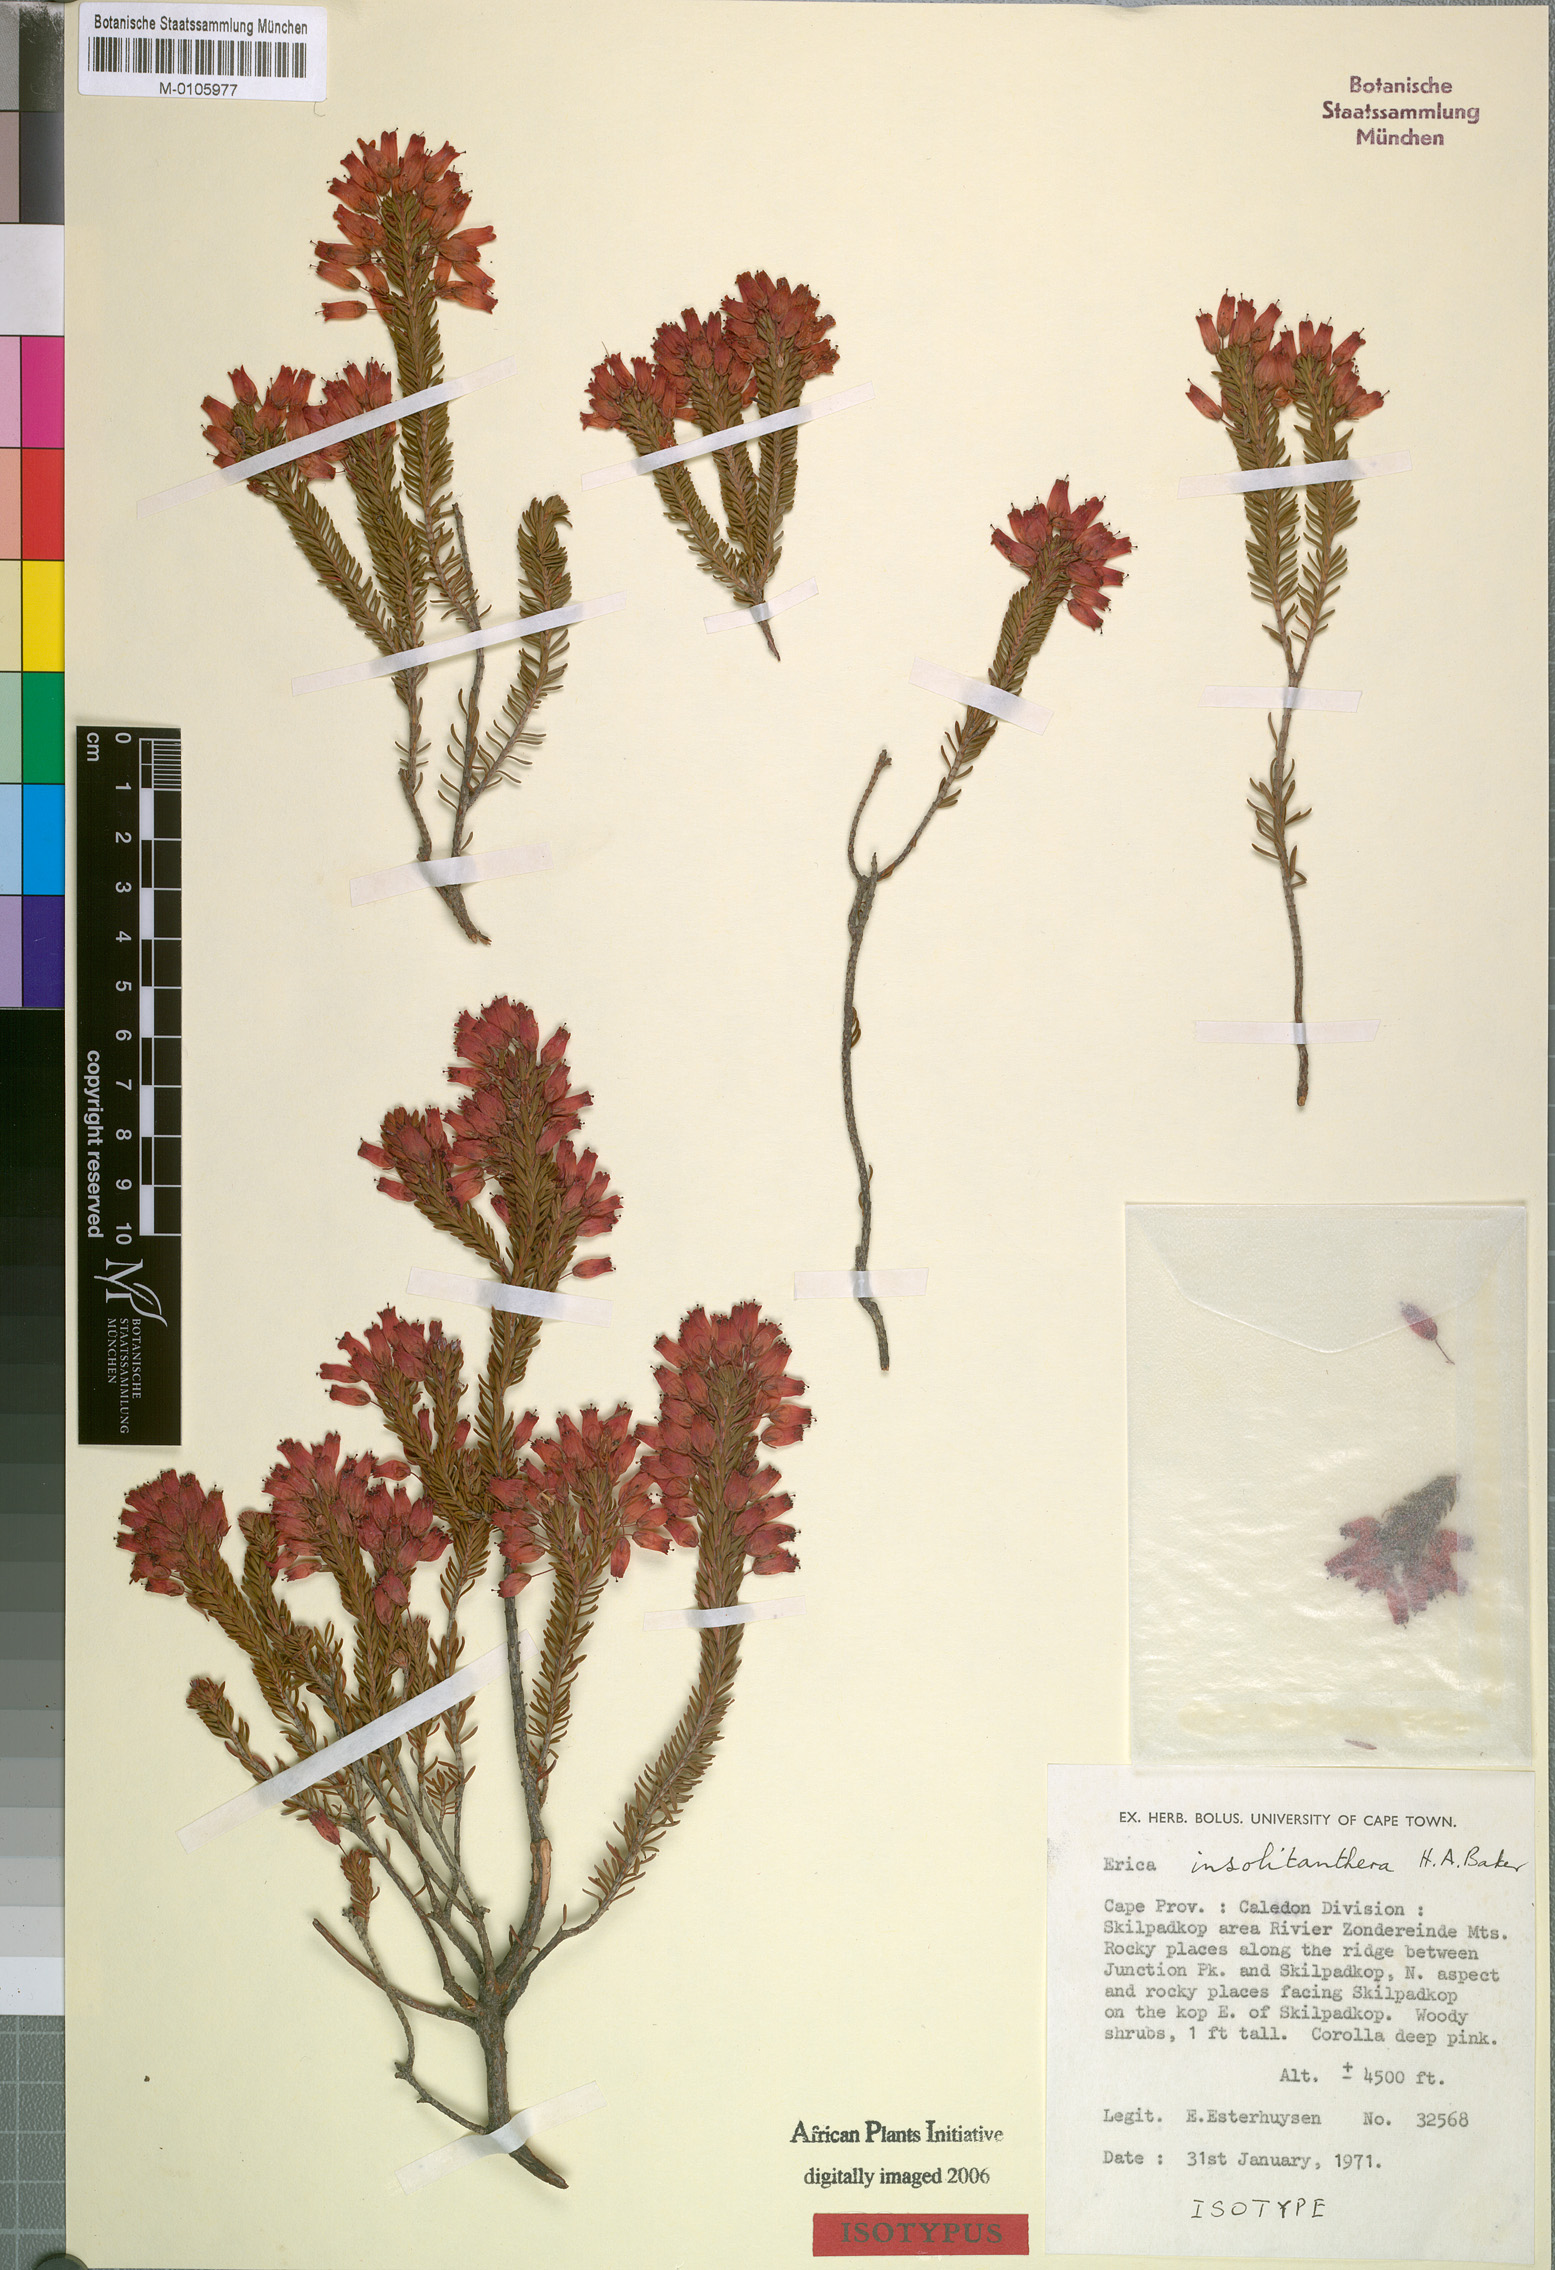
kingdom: Plantae
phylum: Tracheophyta
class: Magnoliopsida
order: Ericales
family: Ericaceae
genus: Erica
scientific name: Erica insolitanthera
